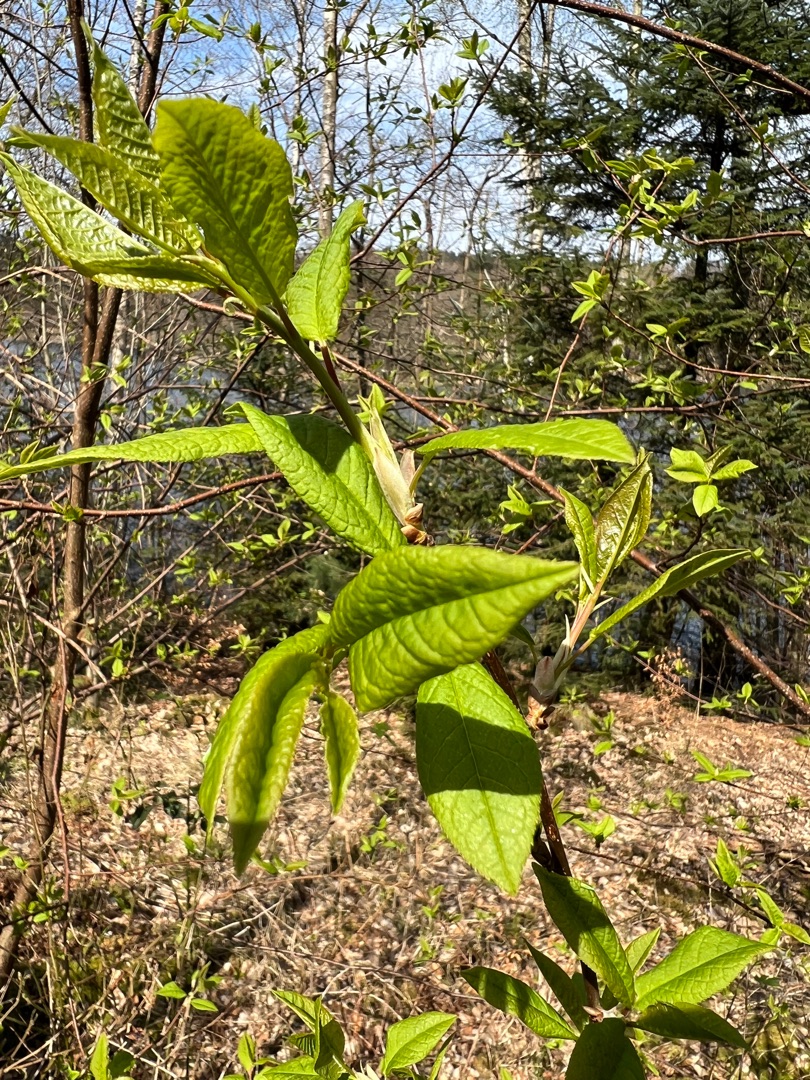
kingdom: Plantae
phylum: Tracheophyta
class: Magnoliopsida
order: Rosales
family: Rosaceae
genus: Prunus
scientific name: Prunus padus
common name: Almindelig hæg
